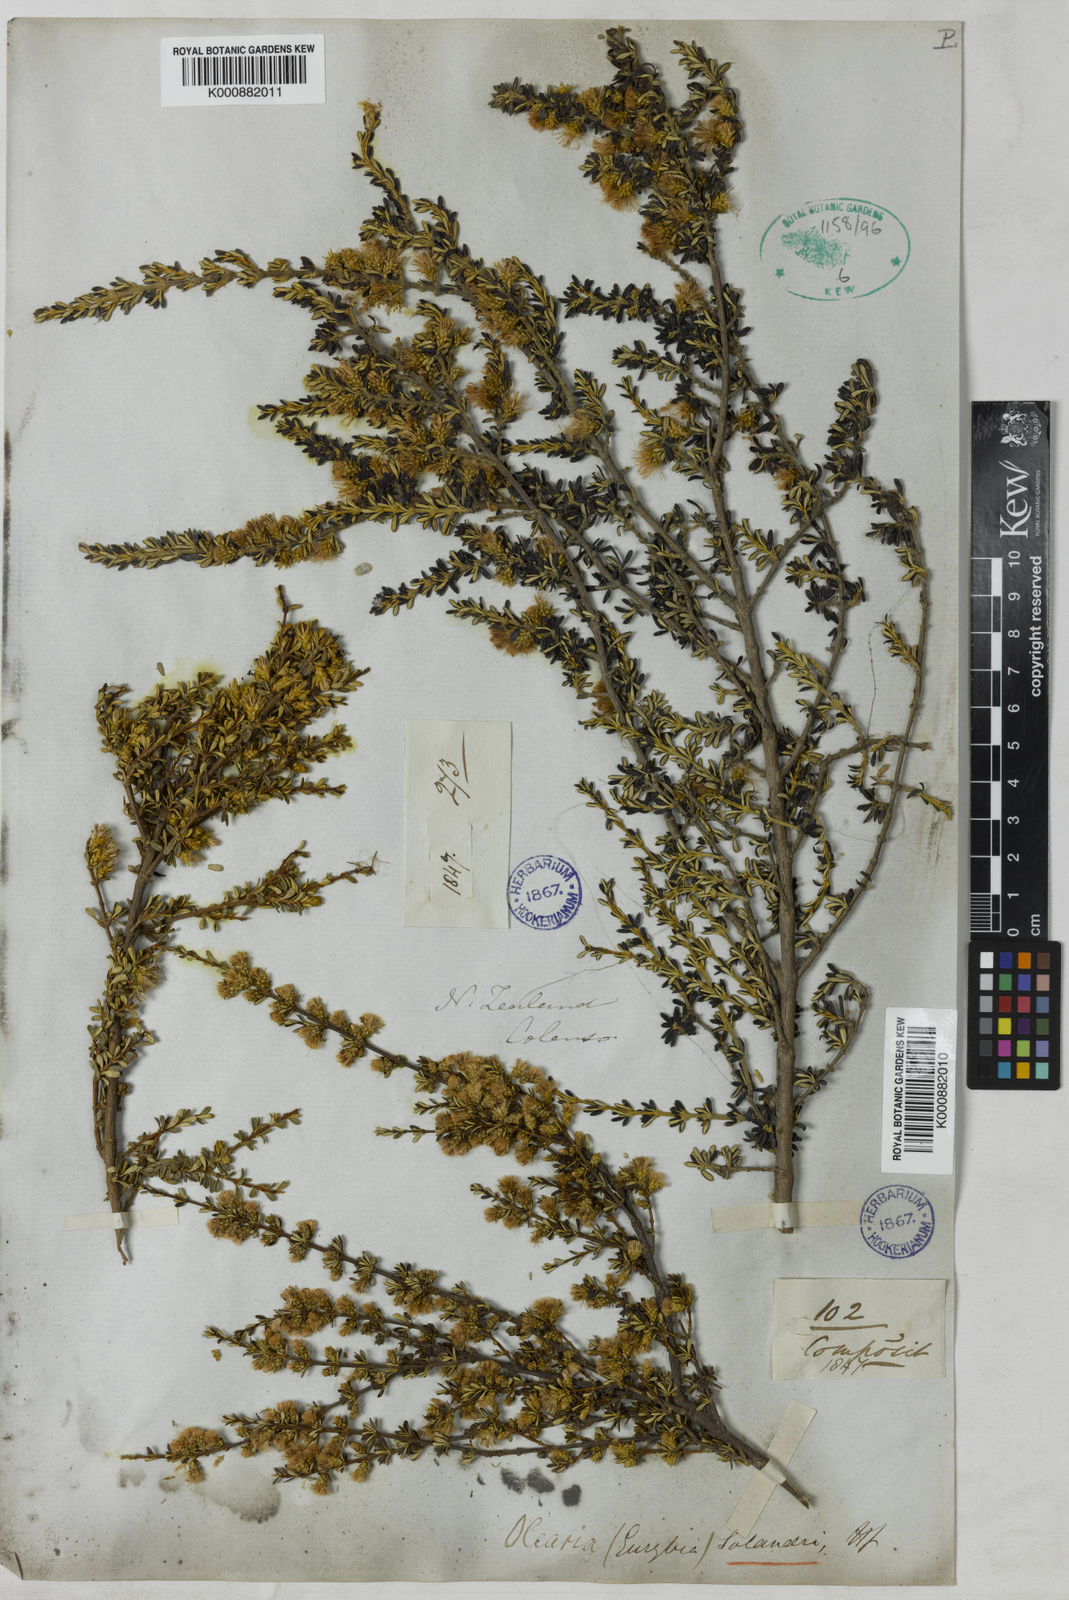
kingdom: Plantae
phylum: Tracheophyta
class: Magnoliopsida
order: Asterales
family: Asteraceae
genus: Olearia
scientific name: Olearia solandri
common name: Coastal daisybush
